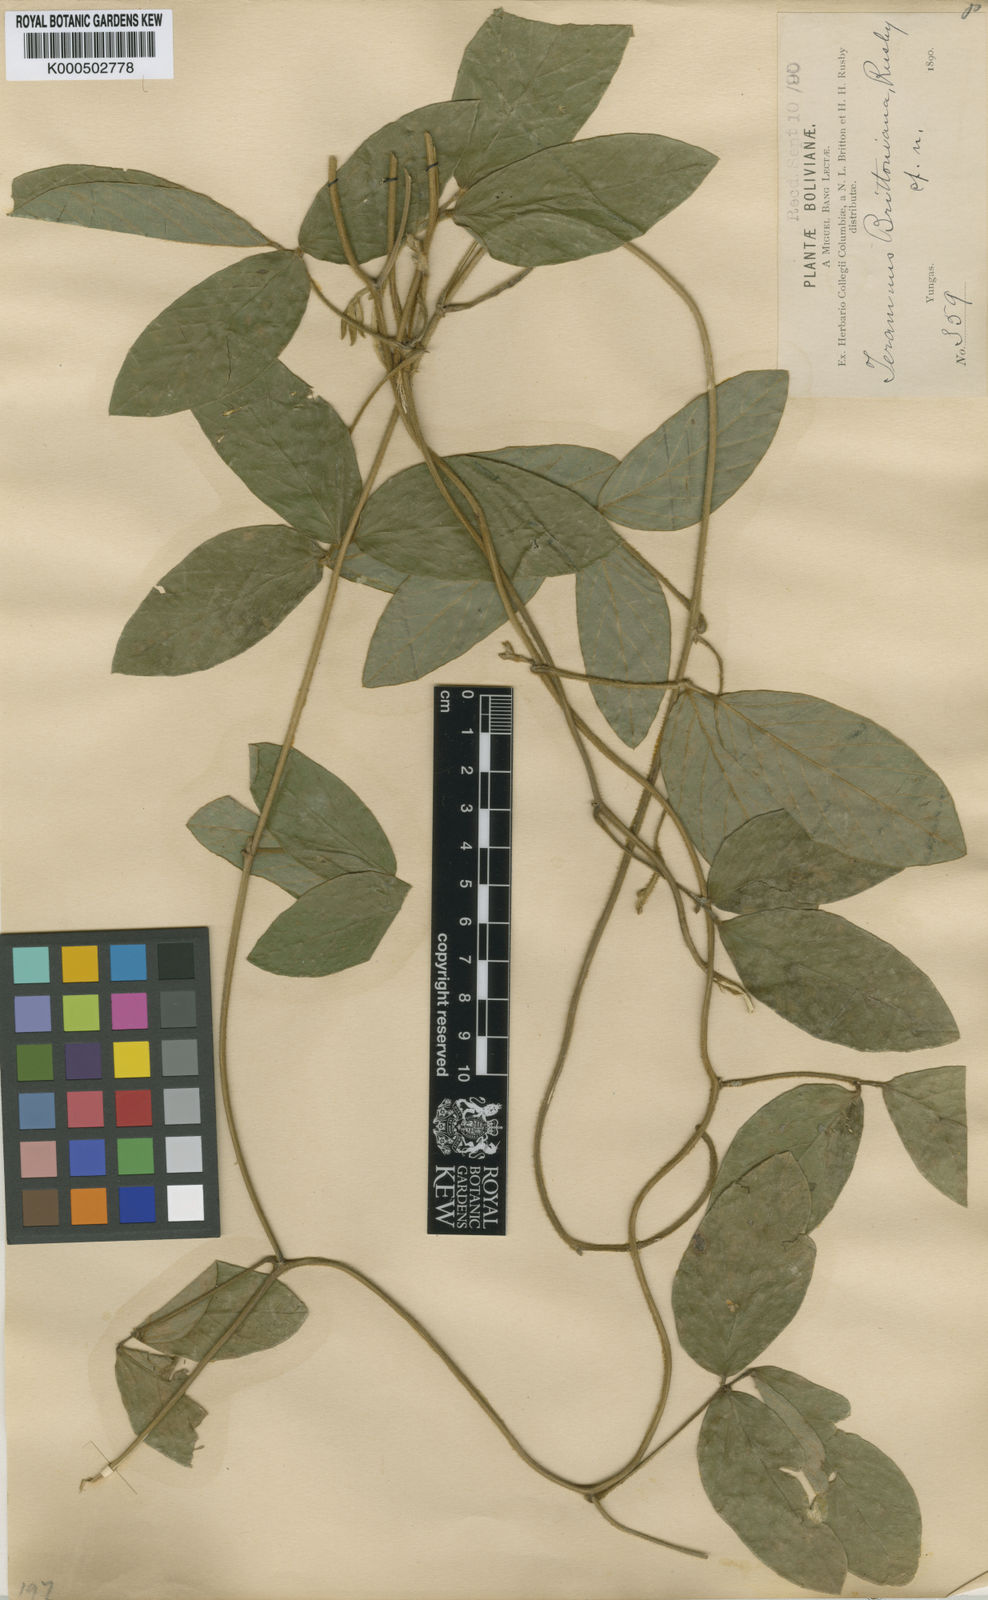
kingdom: Plantae
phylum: Tracheophyta
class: Magnoliopsida
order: Fabales
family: Fabaceae
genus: Teramnus
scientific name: Teramnus
